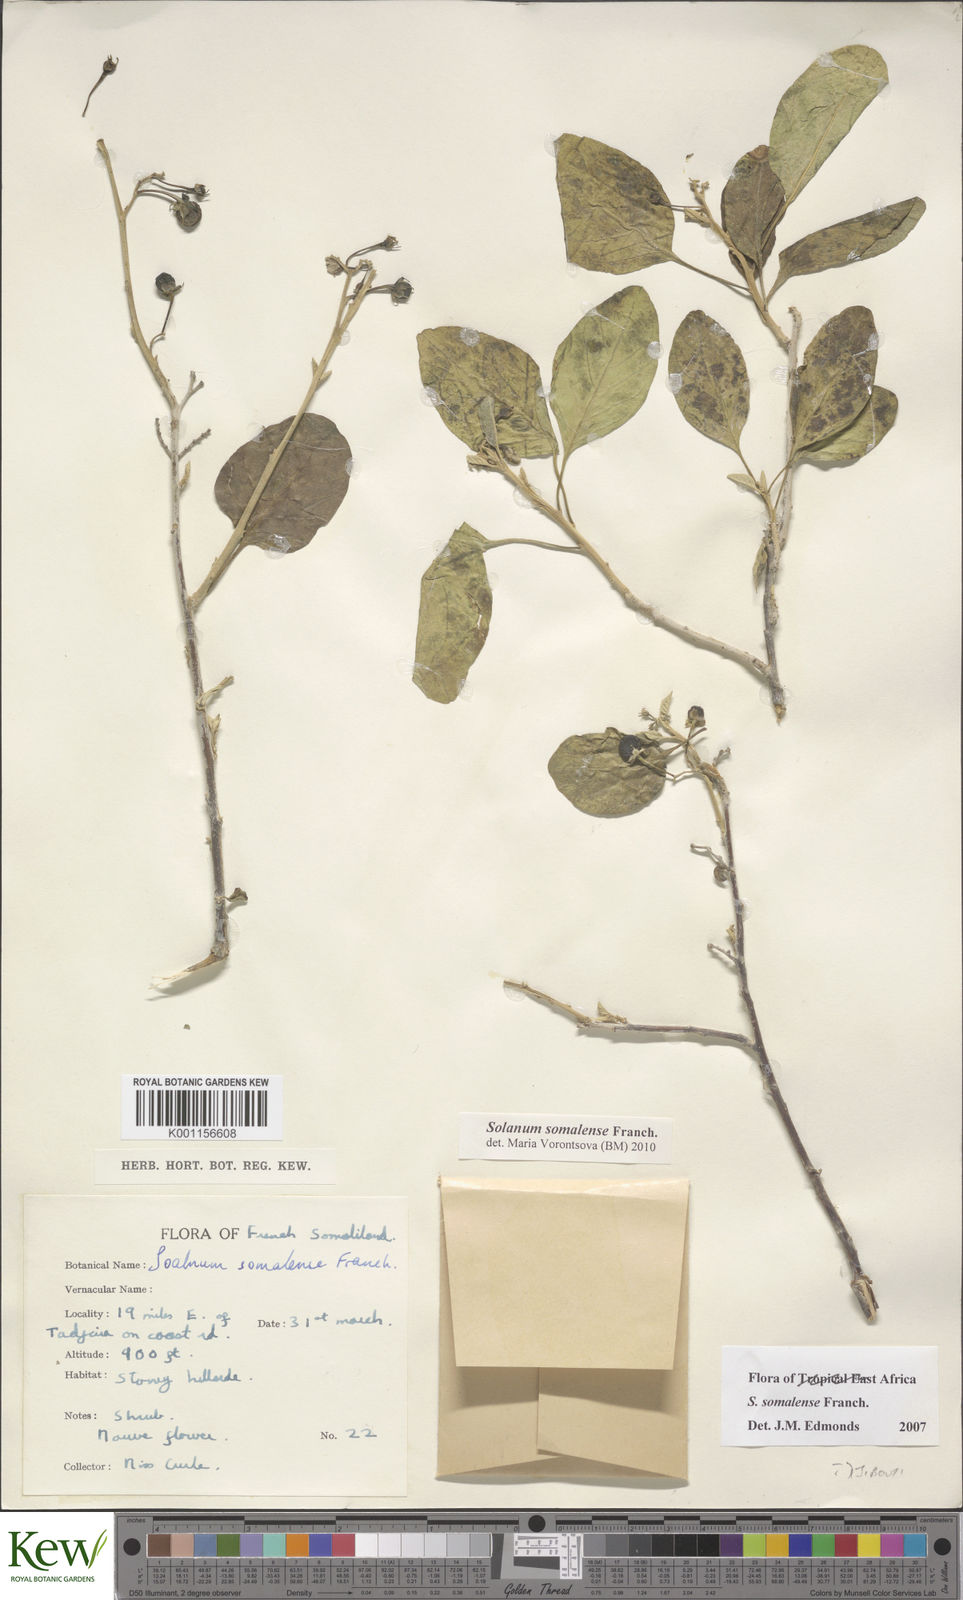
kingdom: Plantae
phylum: Tracheophyta
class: Magnoliopsida
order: Solanales
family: Solanaceae
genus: Solanum
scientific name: Solanum somalense
